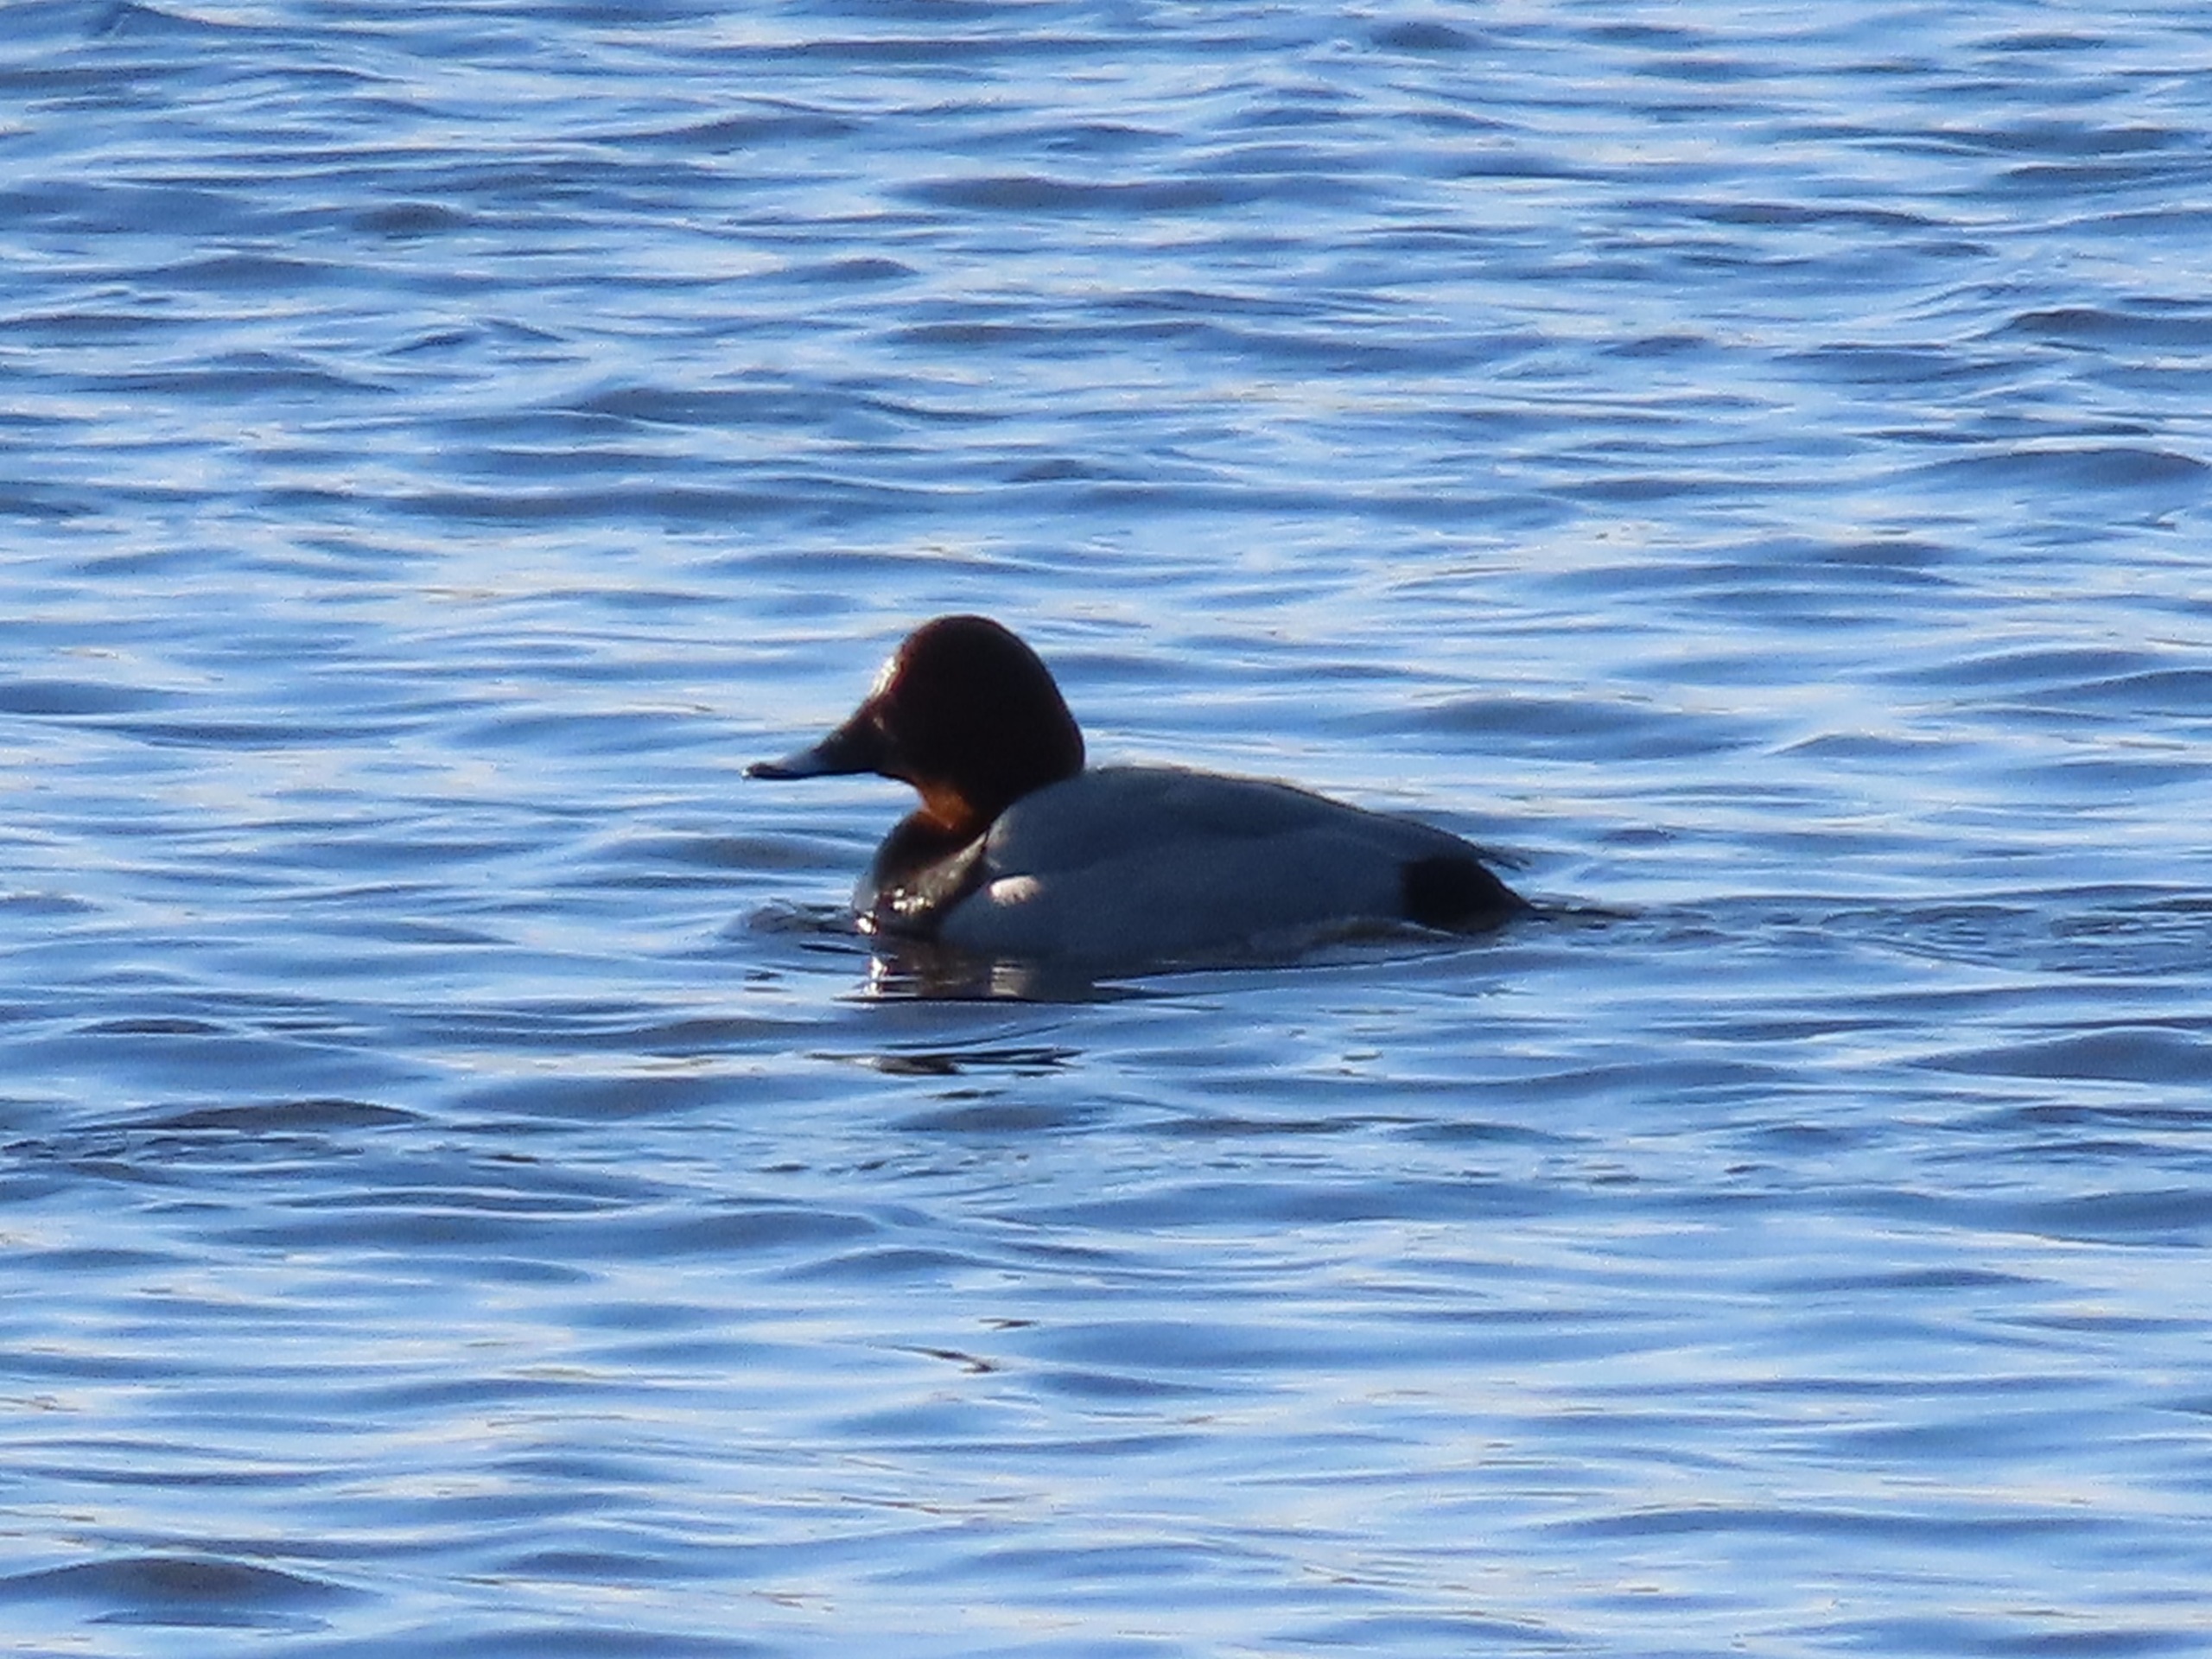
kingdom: Animalia
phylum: Chordata
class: Aves
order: Anseriformes
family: Anatidae
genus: Aythya
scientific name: Aythya ferina
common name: Taffeland
